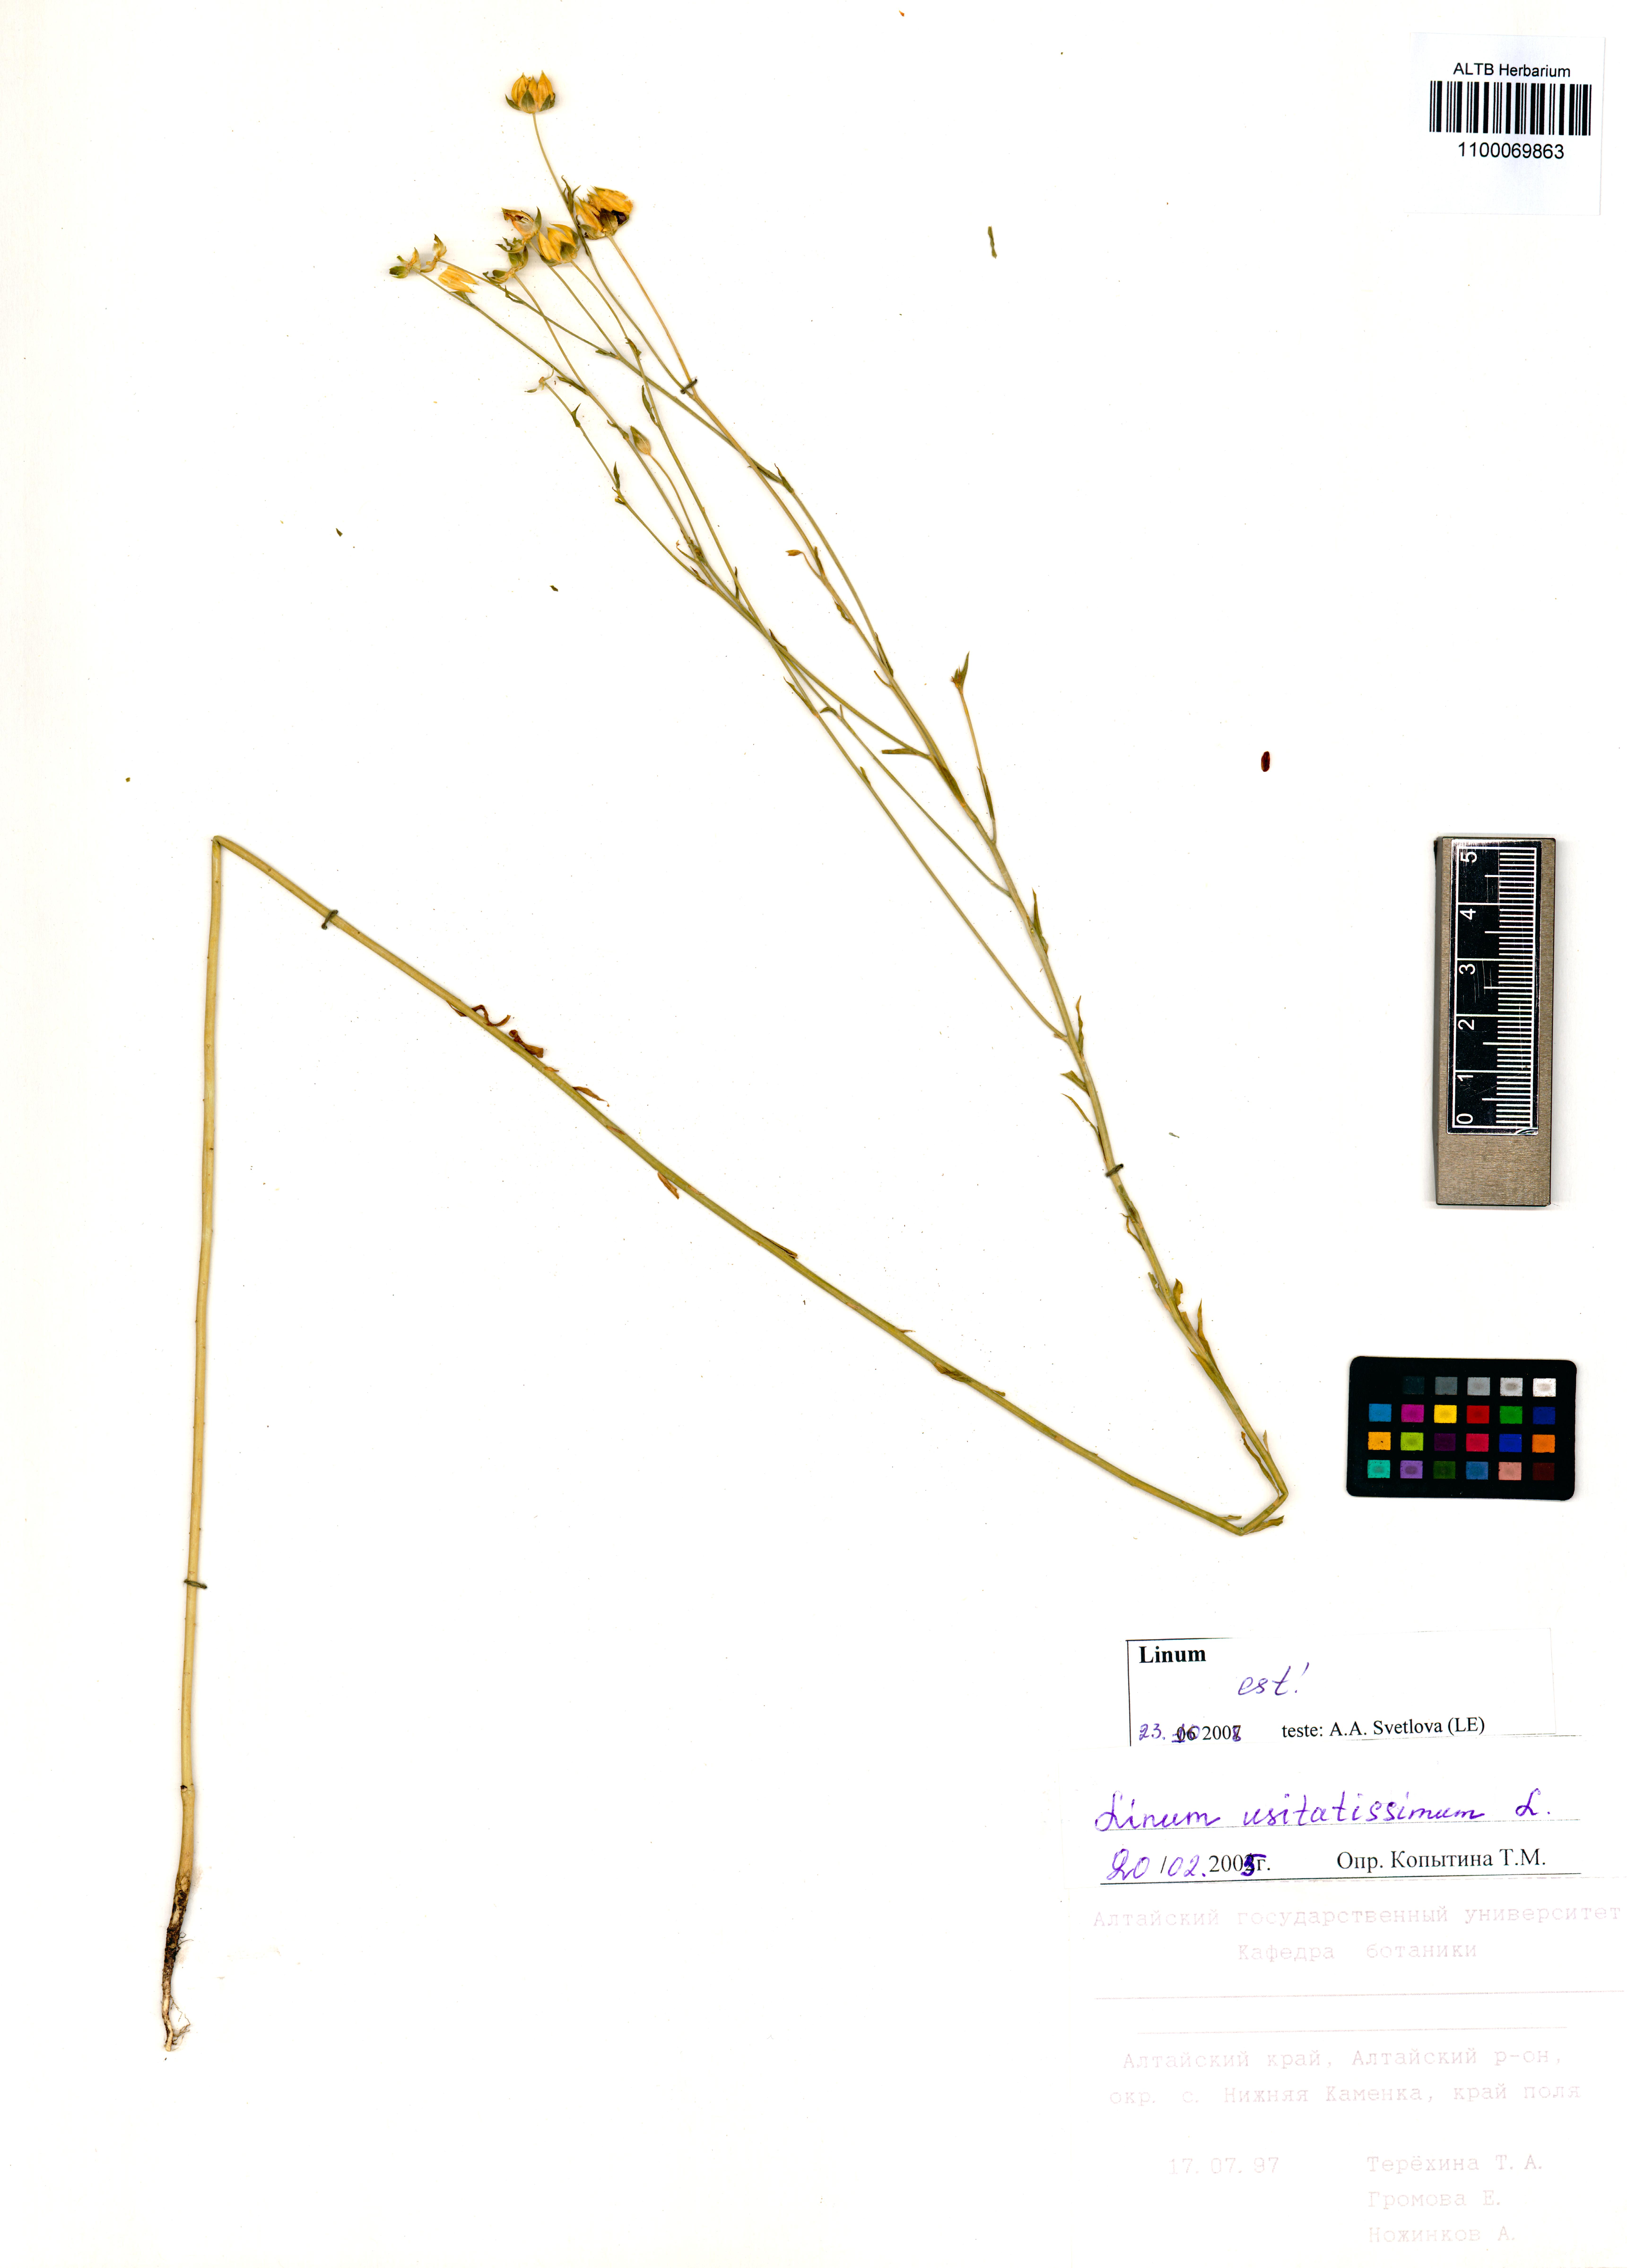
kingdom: Plantae
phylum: Tracheophyta
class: Magnoliopsida
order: Malpighiales
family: Linaceae
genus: Linum
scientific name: Linum usitatissimum
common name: Flax
